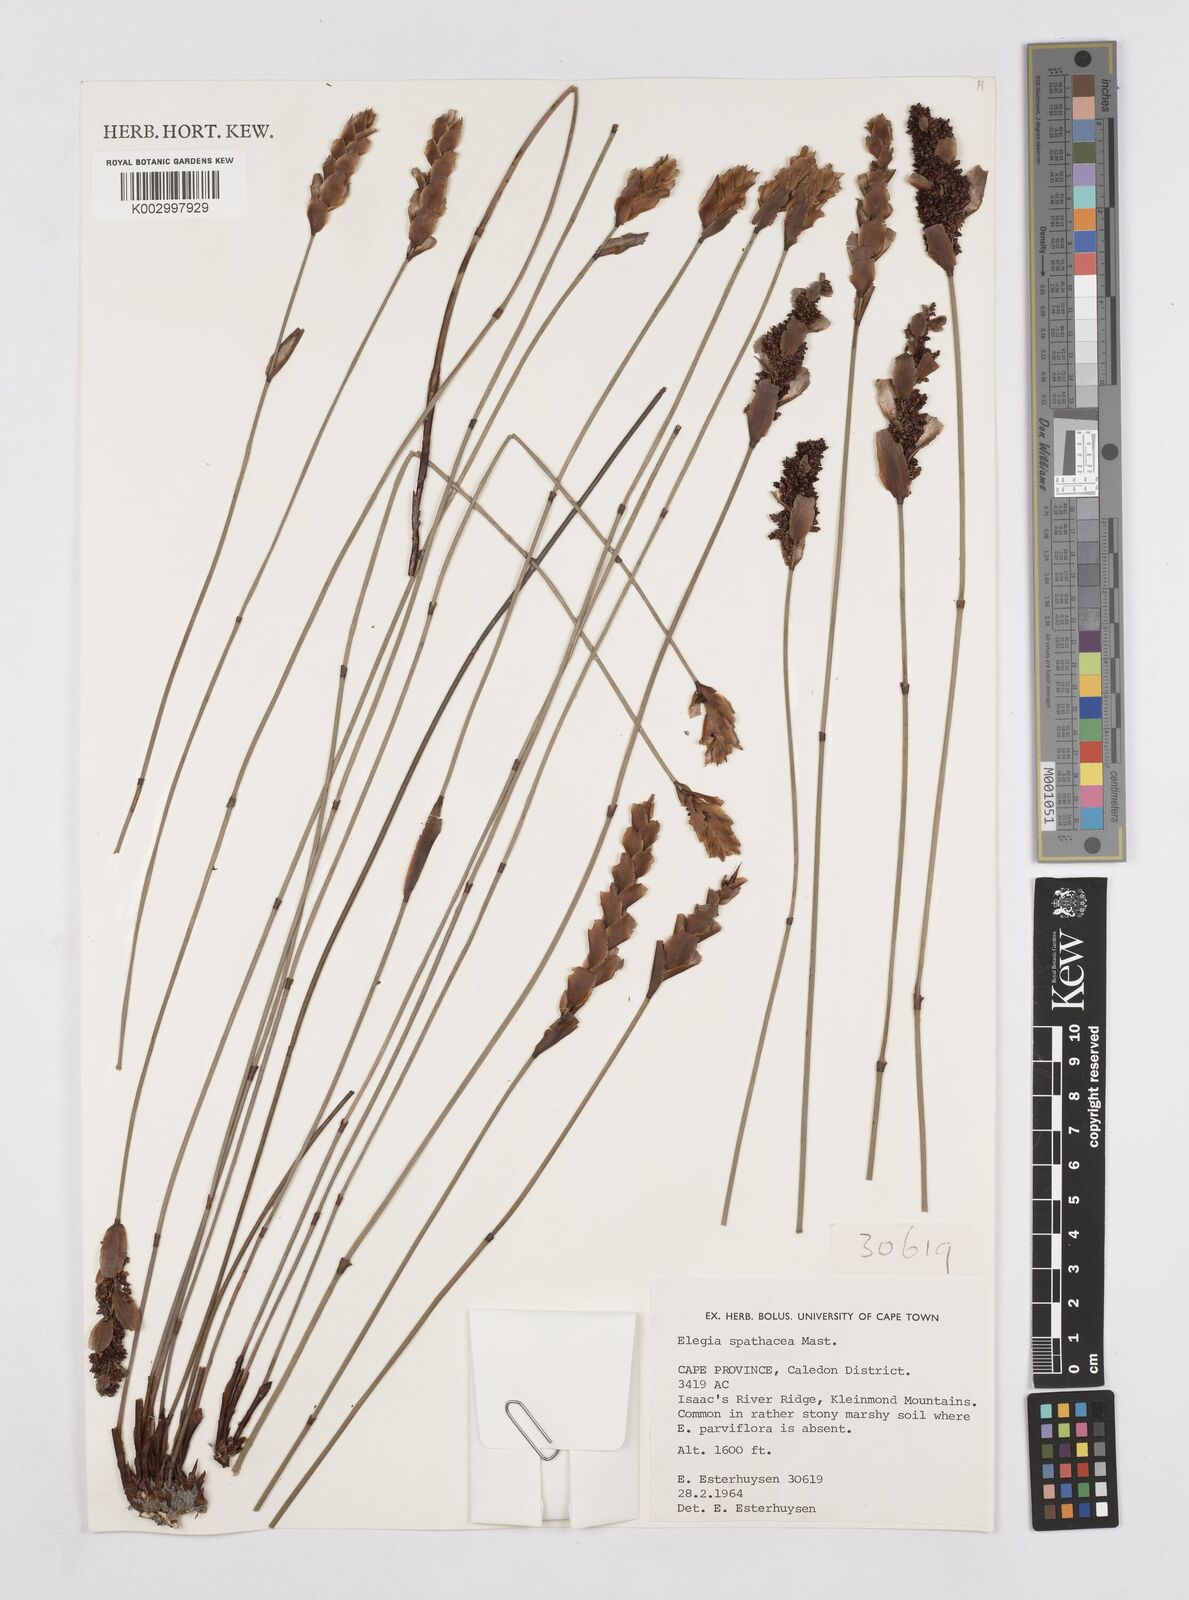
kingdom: Plantae
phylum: Tracheophyta
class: Liliopsida
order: Poales
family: Restionaceae
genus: Elegia
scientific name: Elegia spathacea
